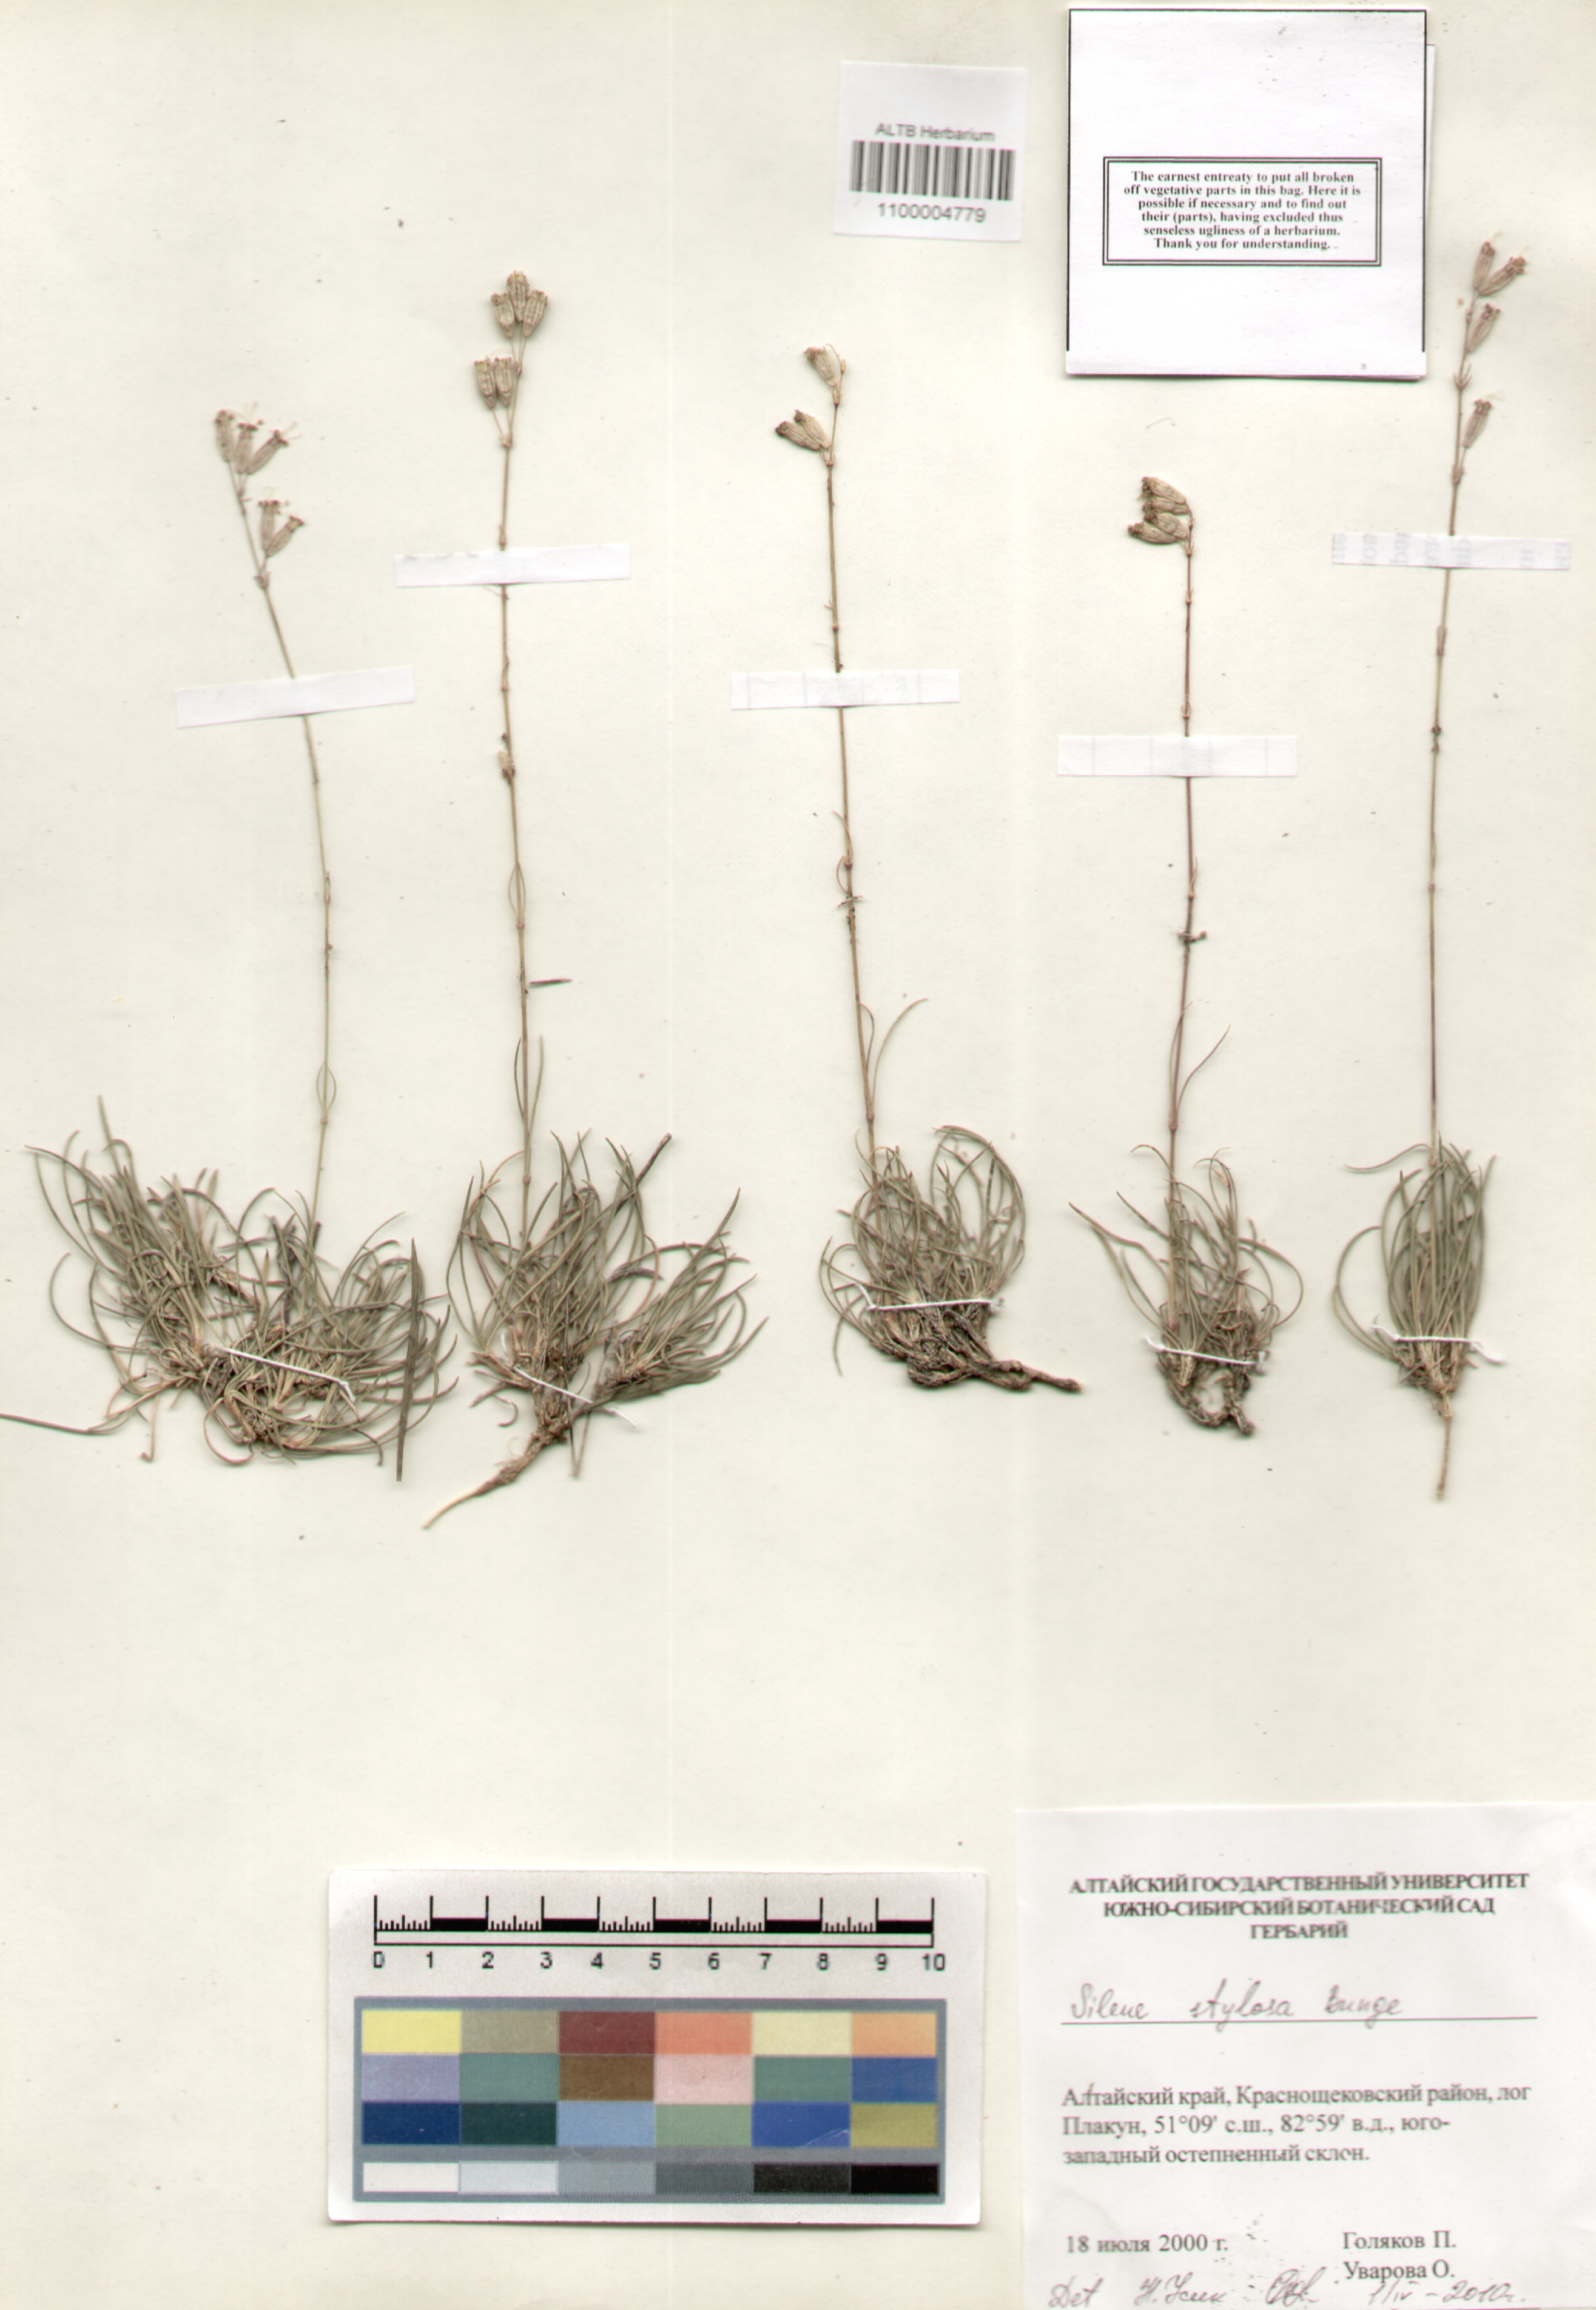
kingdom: Plantae
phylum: Tracheophyta
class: Magnoliopsida
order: Caryophyllales
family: Caryophyllaceae
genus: Silene
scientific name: Silene graminifolia
